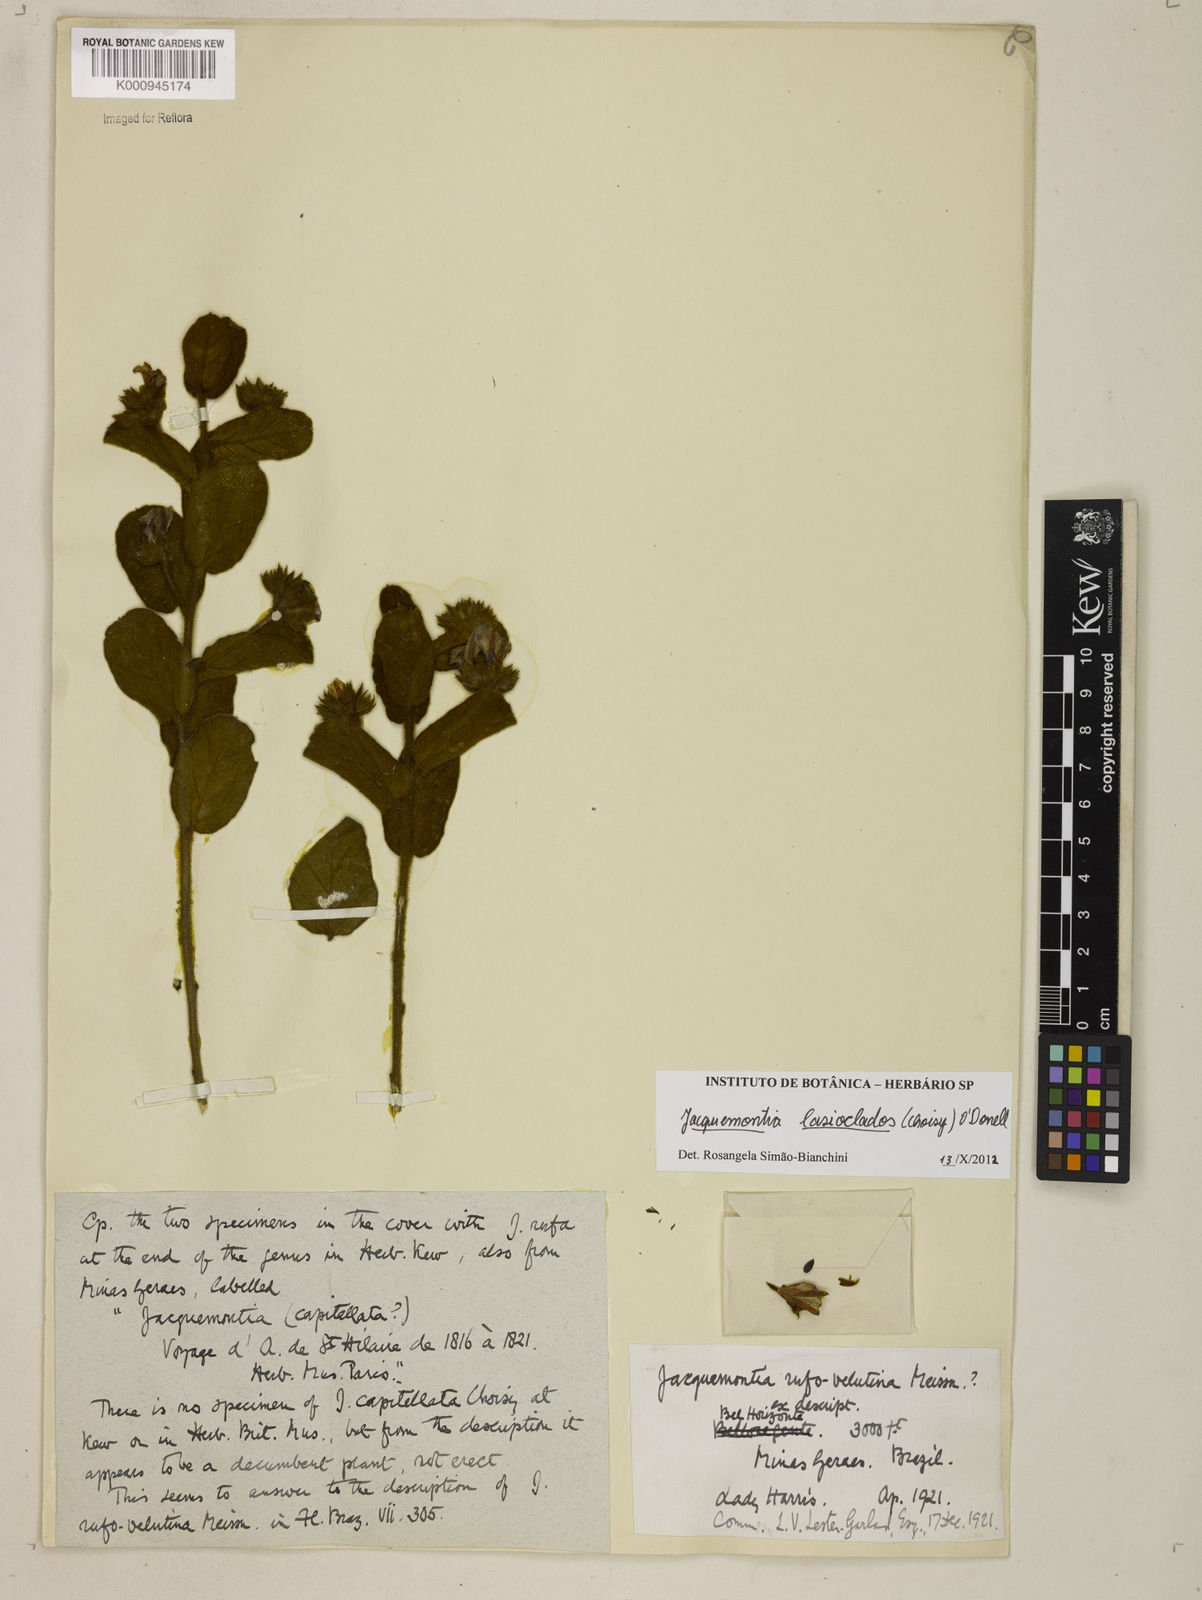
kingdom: Plantae
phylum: Tracheophyta
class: Magnoliopsida
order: Solanales
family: Convolvulaceae
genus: Jacquemontia
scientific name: Jacquemontia lasioclados
